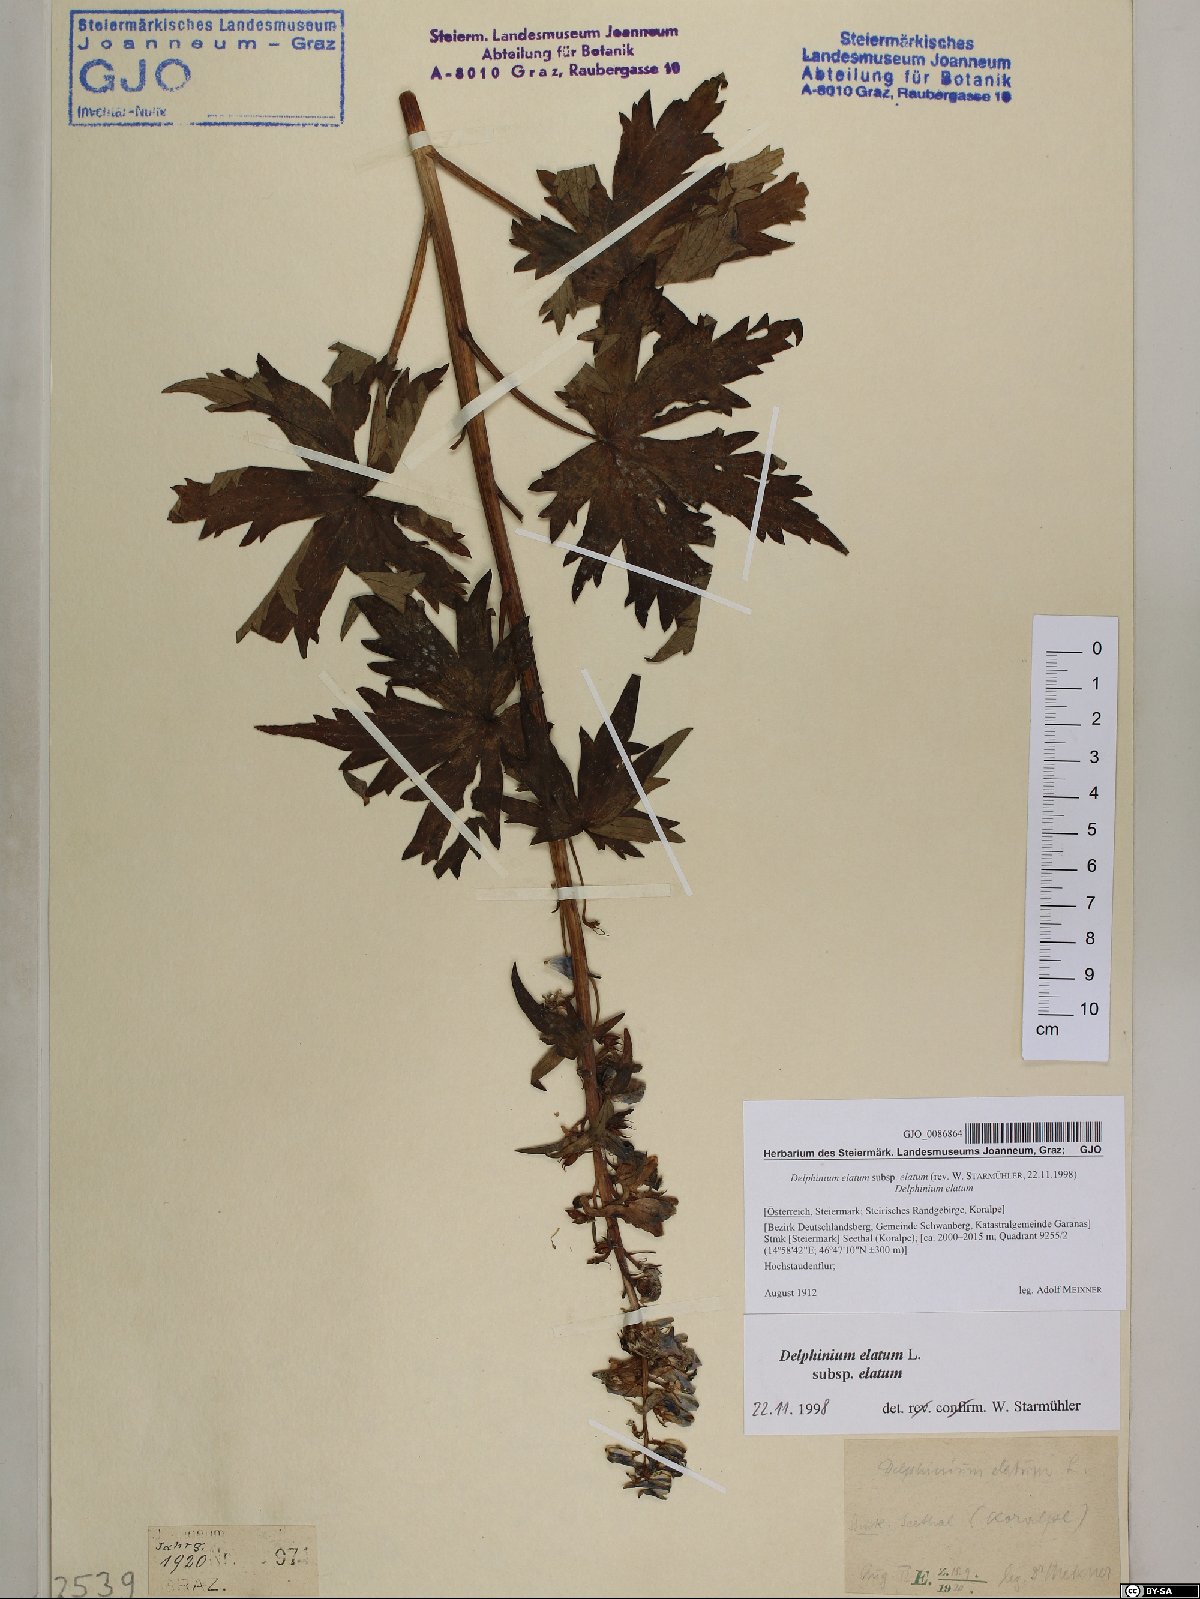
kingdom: Plantae
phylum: Tracheophyta
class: Magnoliopsida
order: Ranunculales
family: Ranunculaceae
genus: Delphinium
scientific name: Delphinium elatum
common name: Candle larkspur
